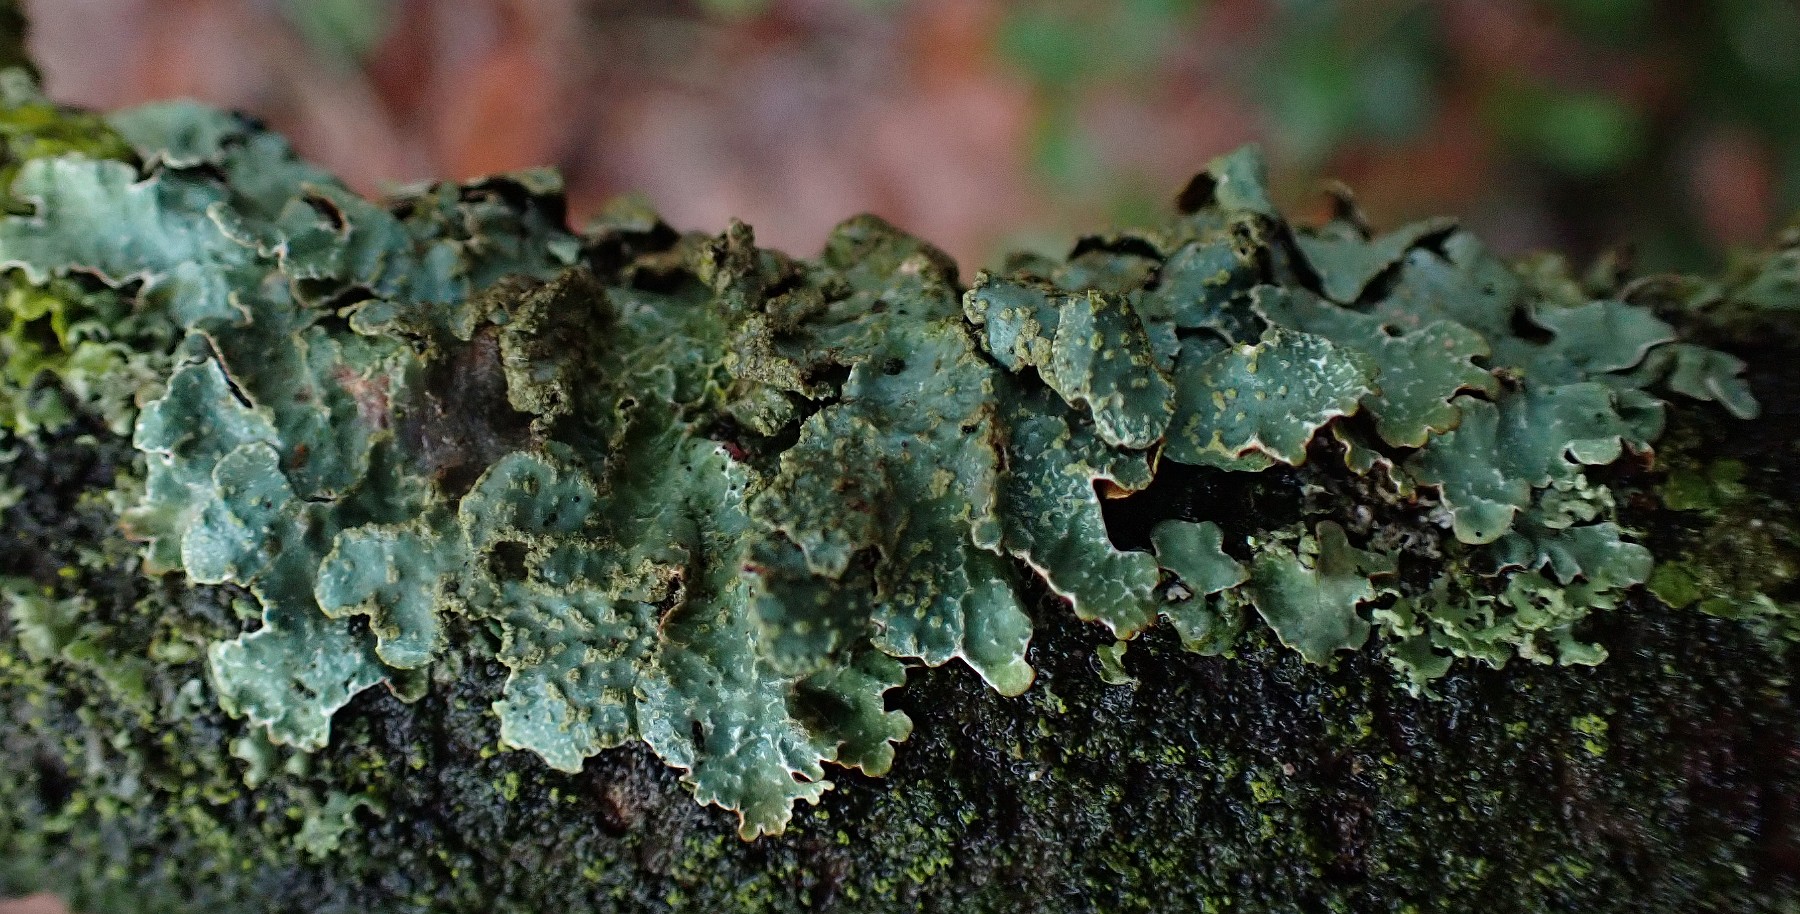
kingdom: Fungi
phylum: Ascomycota
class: Lecanoromycetes
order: Lecanorales
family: Parmeliaceae
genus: Parmelia
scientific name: Parmelia sulcata
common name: rynket skållav
